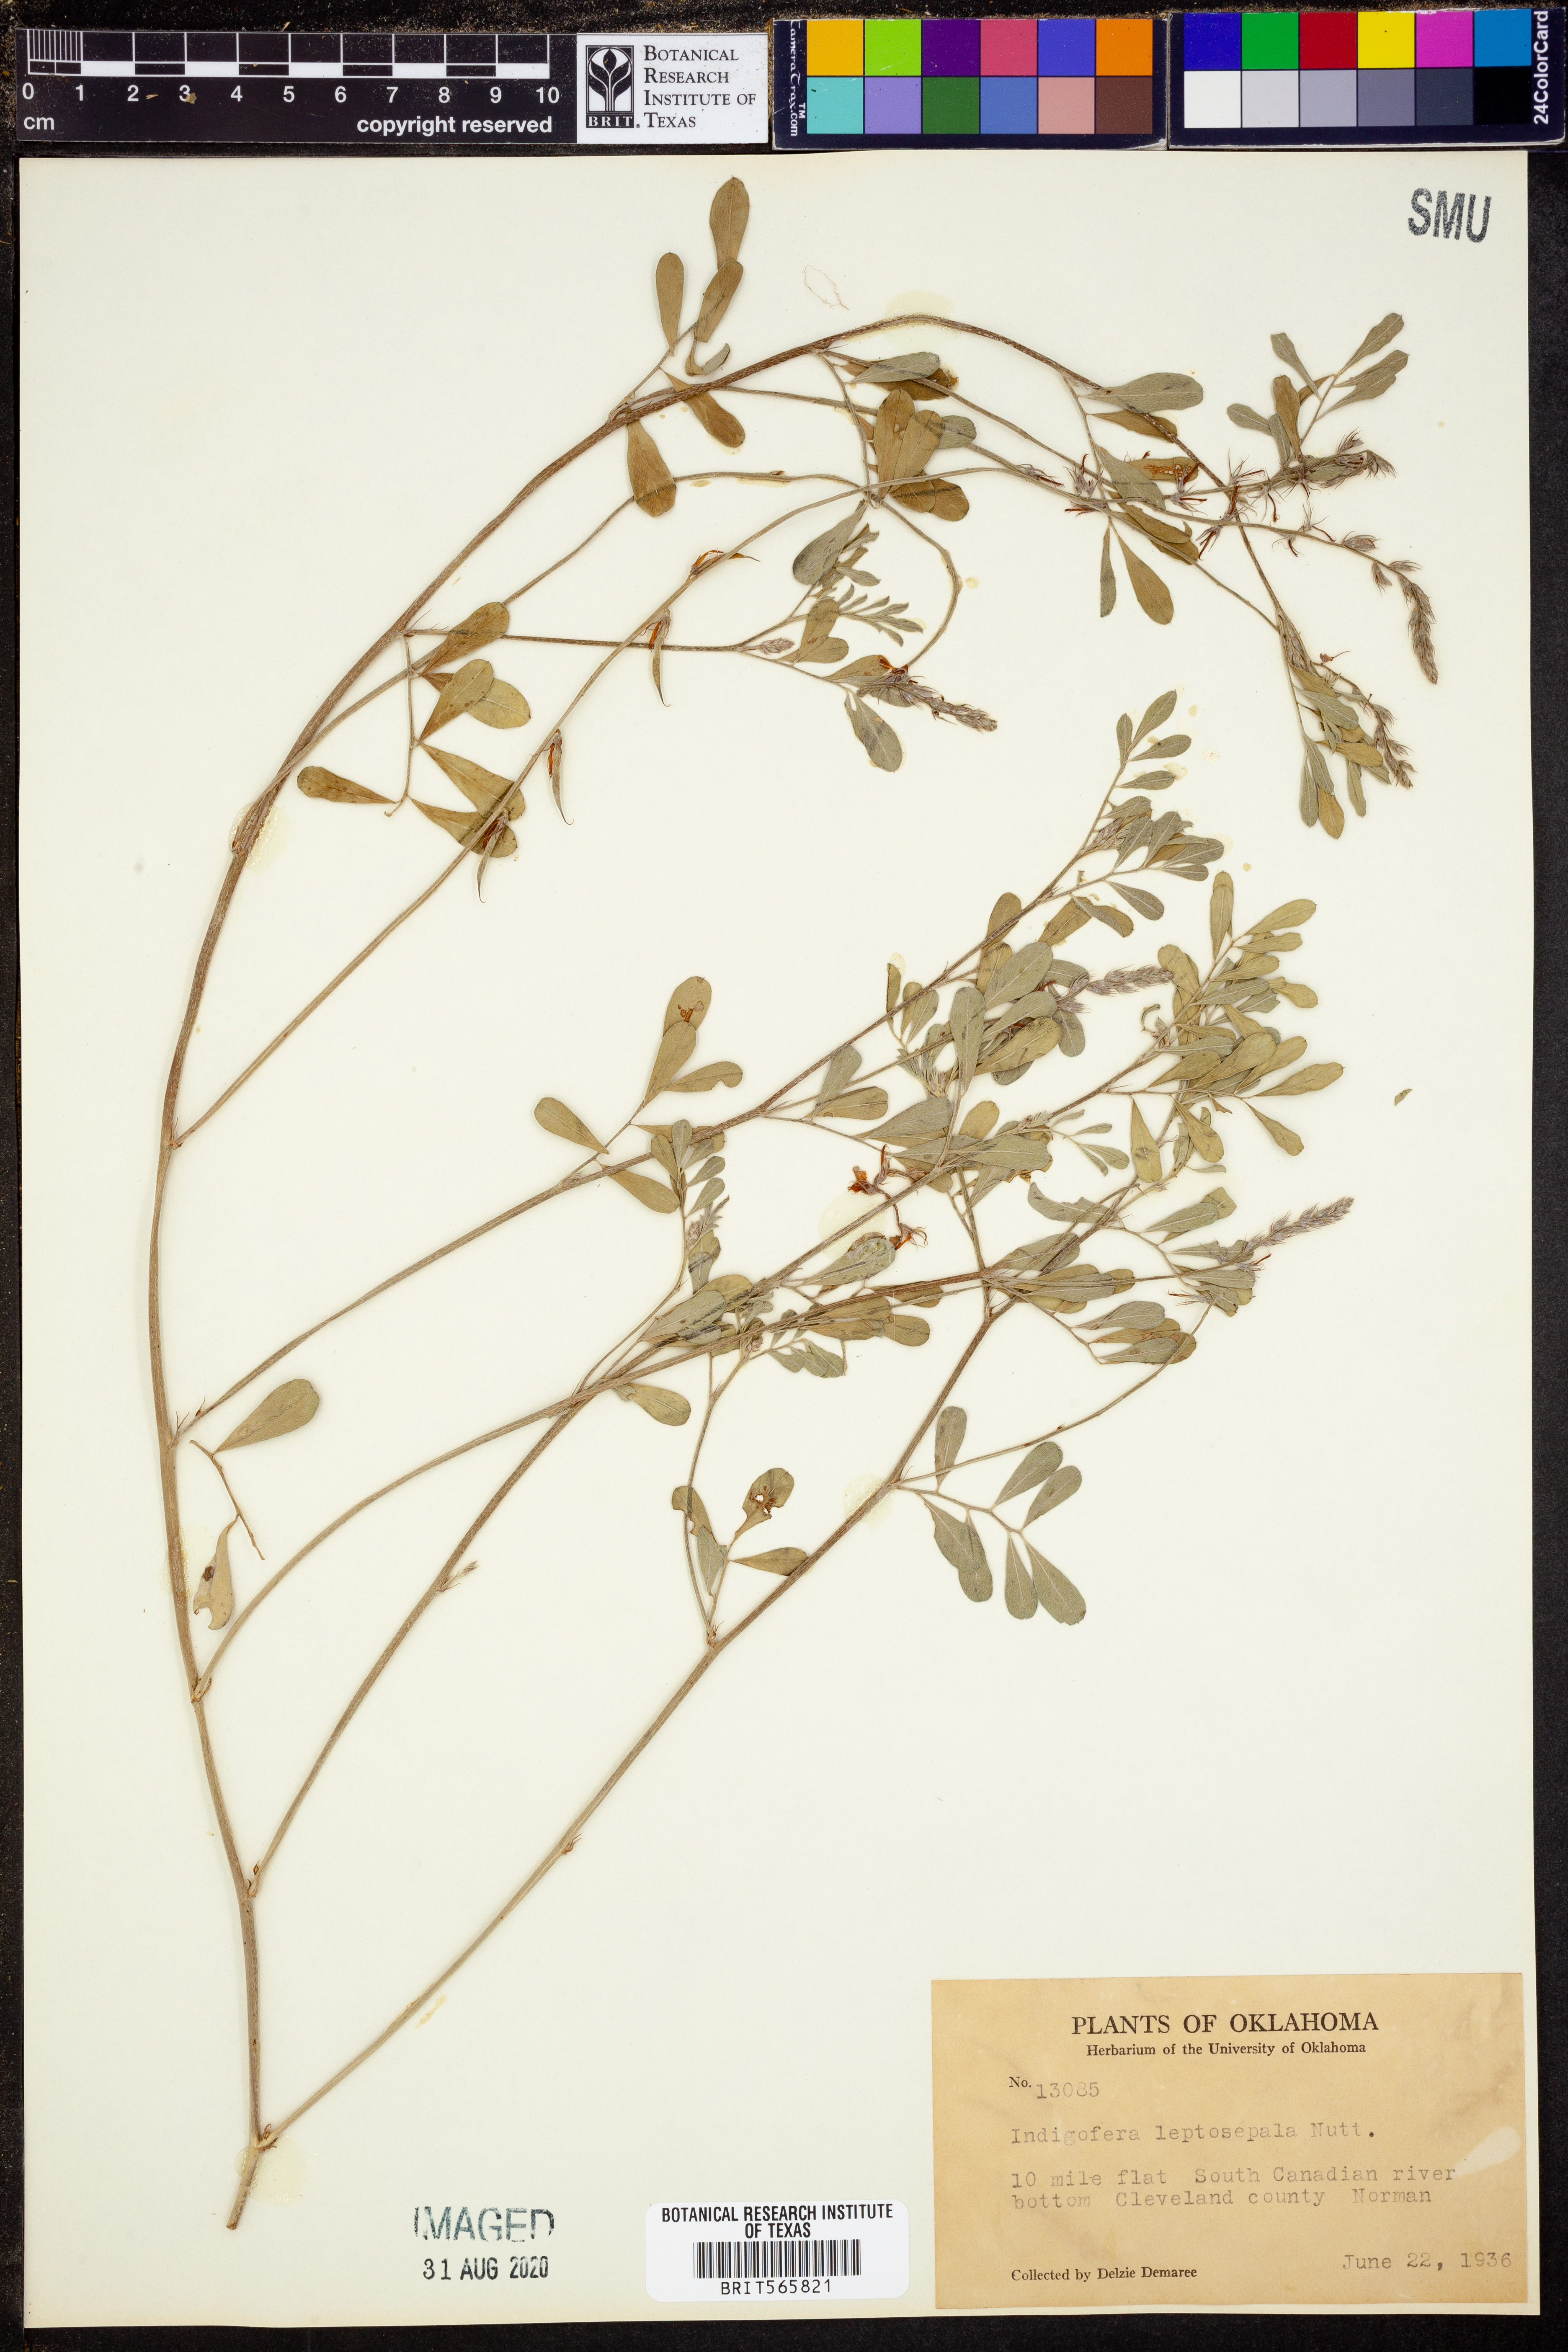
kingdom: Plantae
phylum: Tracheophyta
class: Magnoliopsida
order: Fabales
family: Fabaceae
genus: Indigofera
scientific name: Indigofera argutidens
